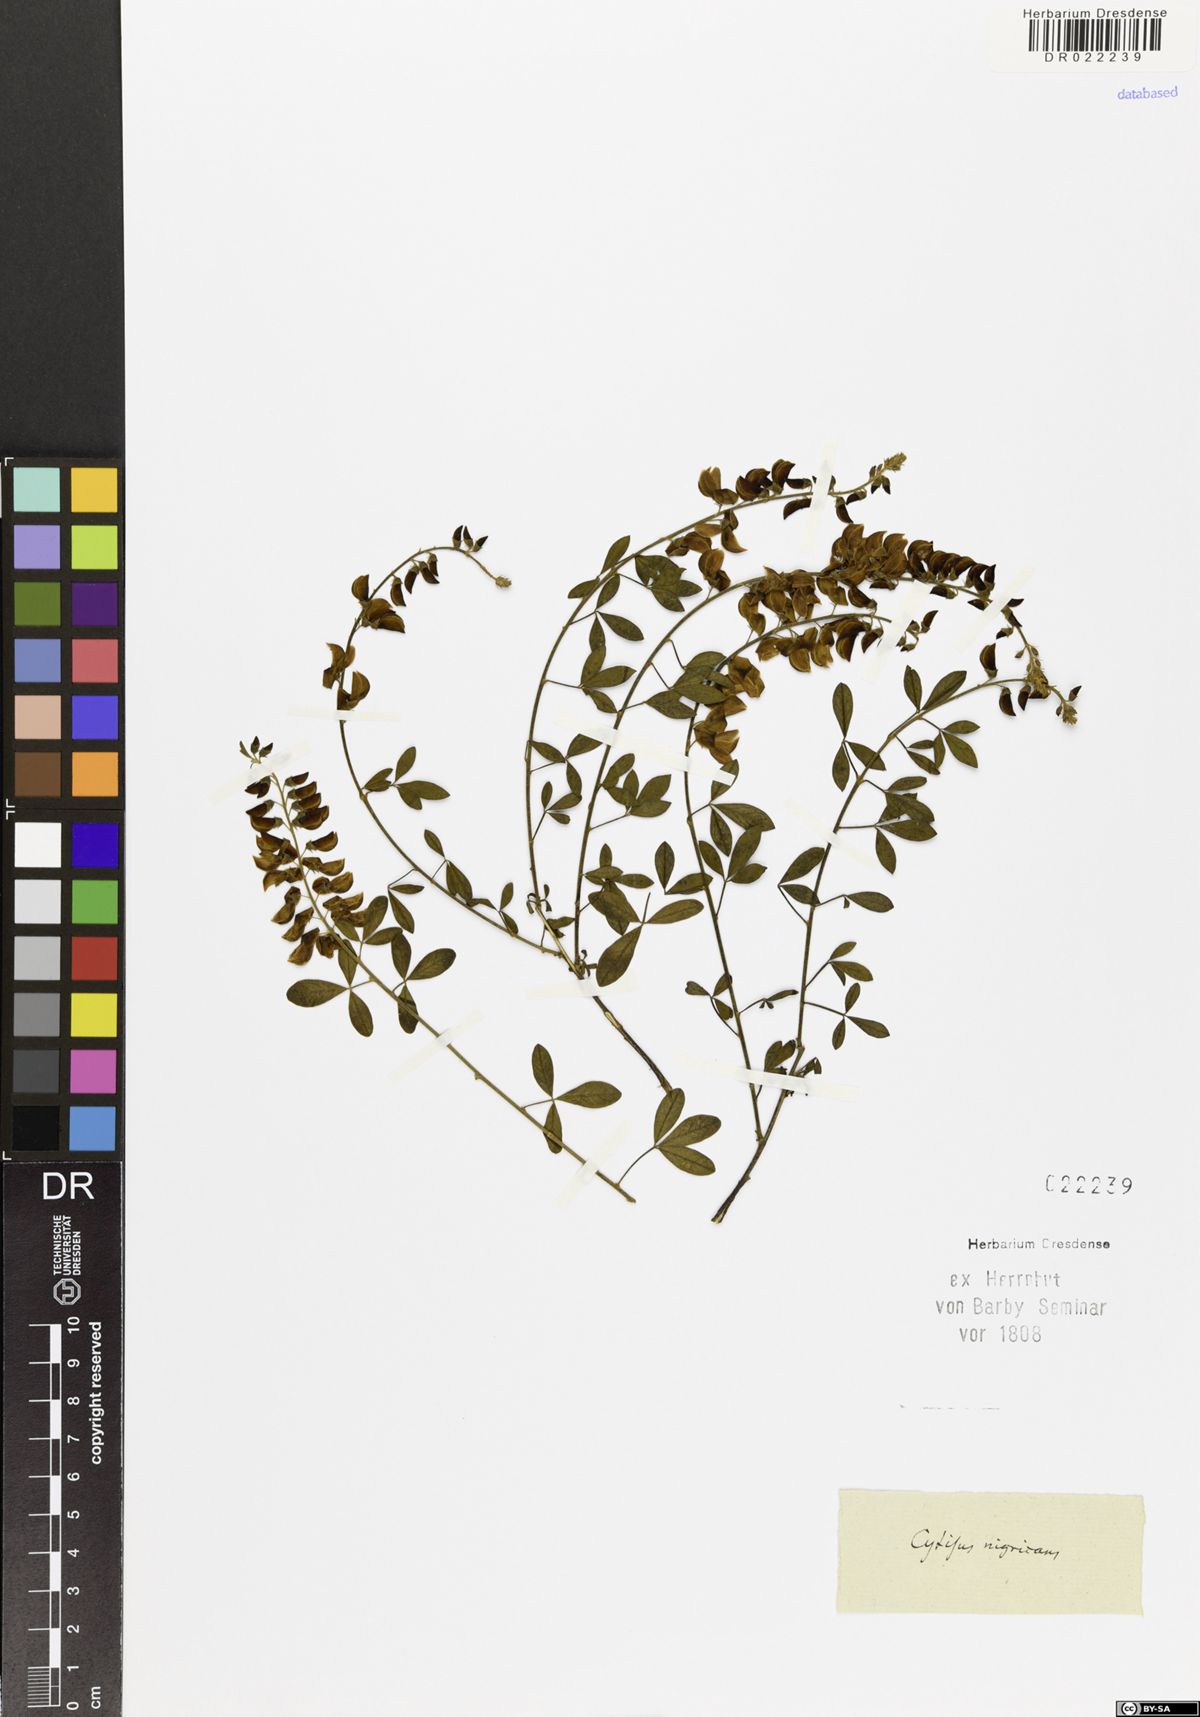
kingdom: Plantae
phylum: Tracheophyta
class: Magnoliopsida
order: Fabales
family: Fabaceae
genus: Cytisus
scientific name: Cytisus nigricans
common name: Black broom
